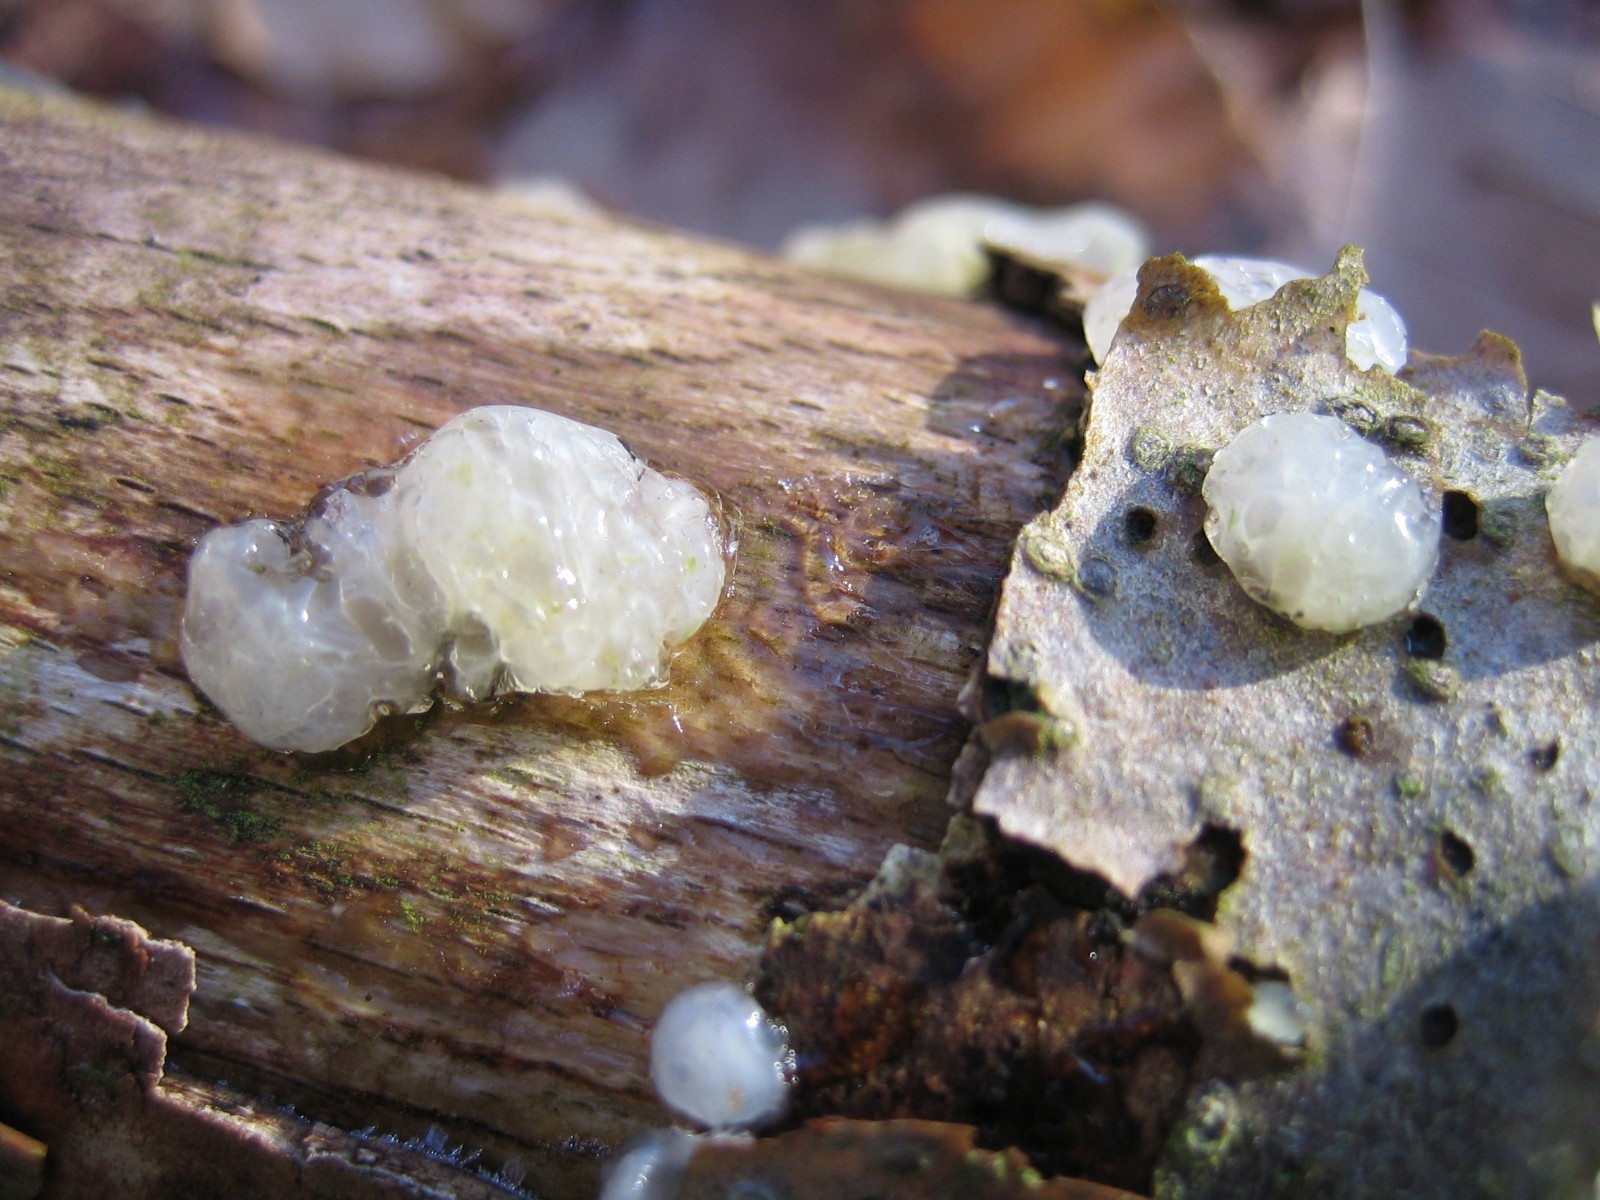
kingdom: Fungi
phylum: Basidiomycota
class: Agaricomycetes
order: Auriculariales
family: Hyaloriaceae
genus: Myxarium
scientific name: Myxarium nucleatum
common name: klar bævretop
